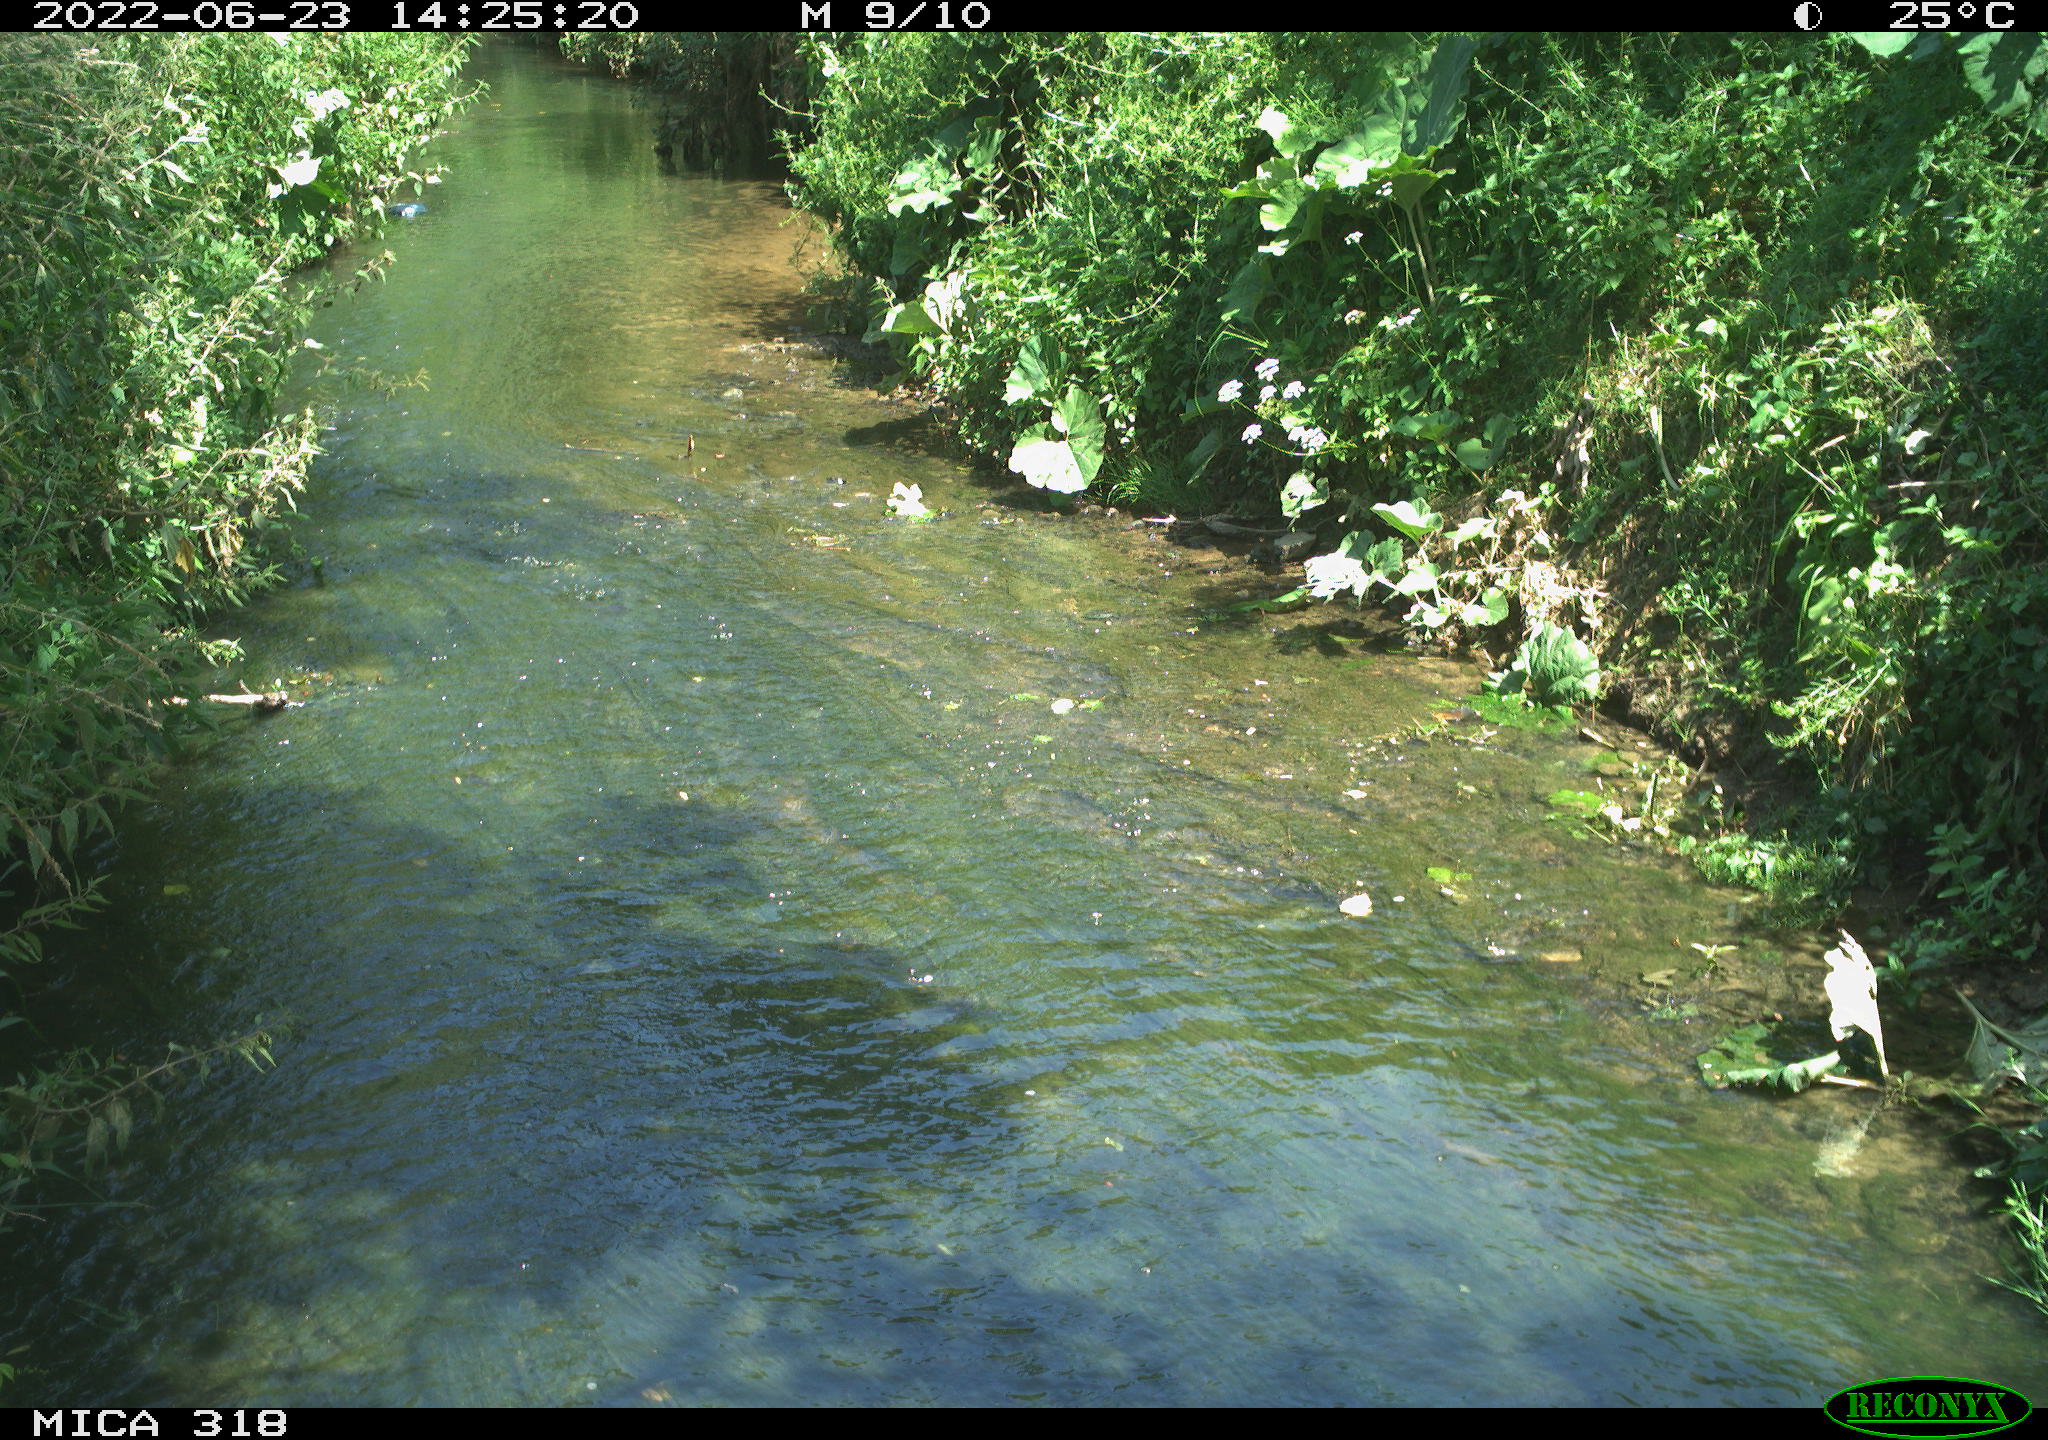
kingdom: Animalia
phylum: Chordata
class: Aves
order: Passeriformes
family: Corvidae
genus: Corvus
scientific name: Corvus corone
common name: Carrion crow
